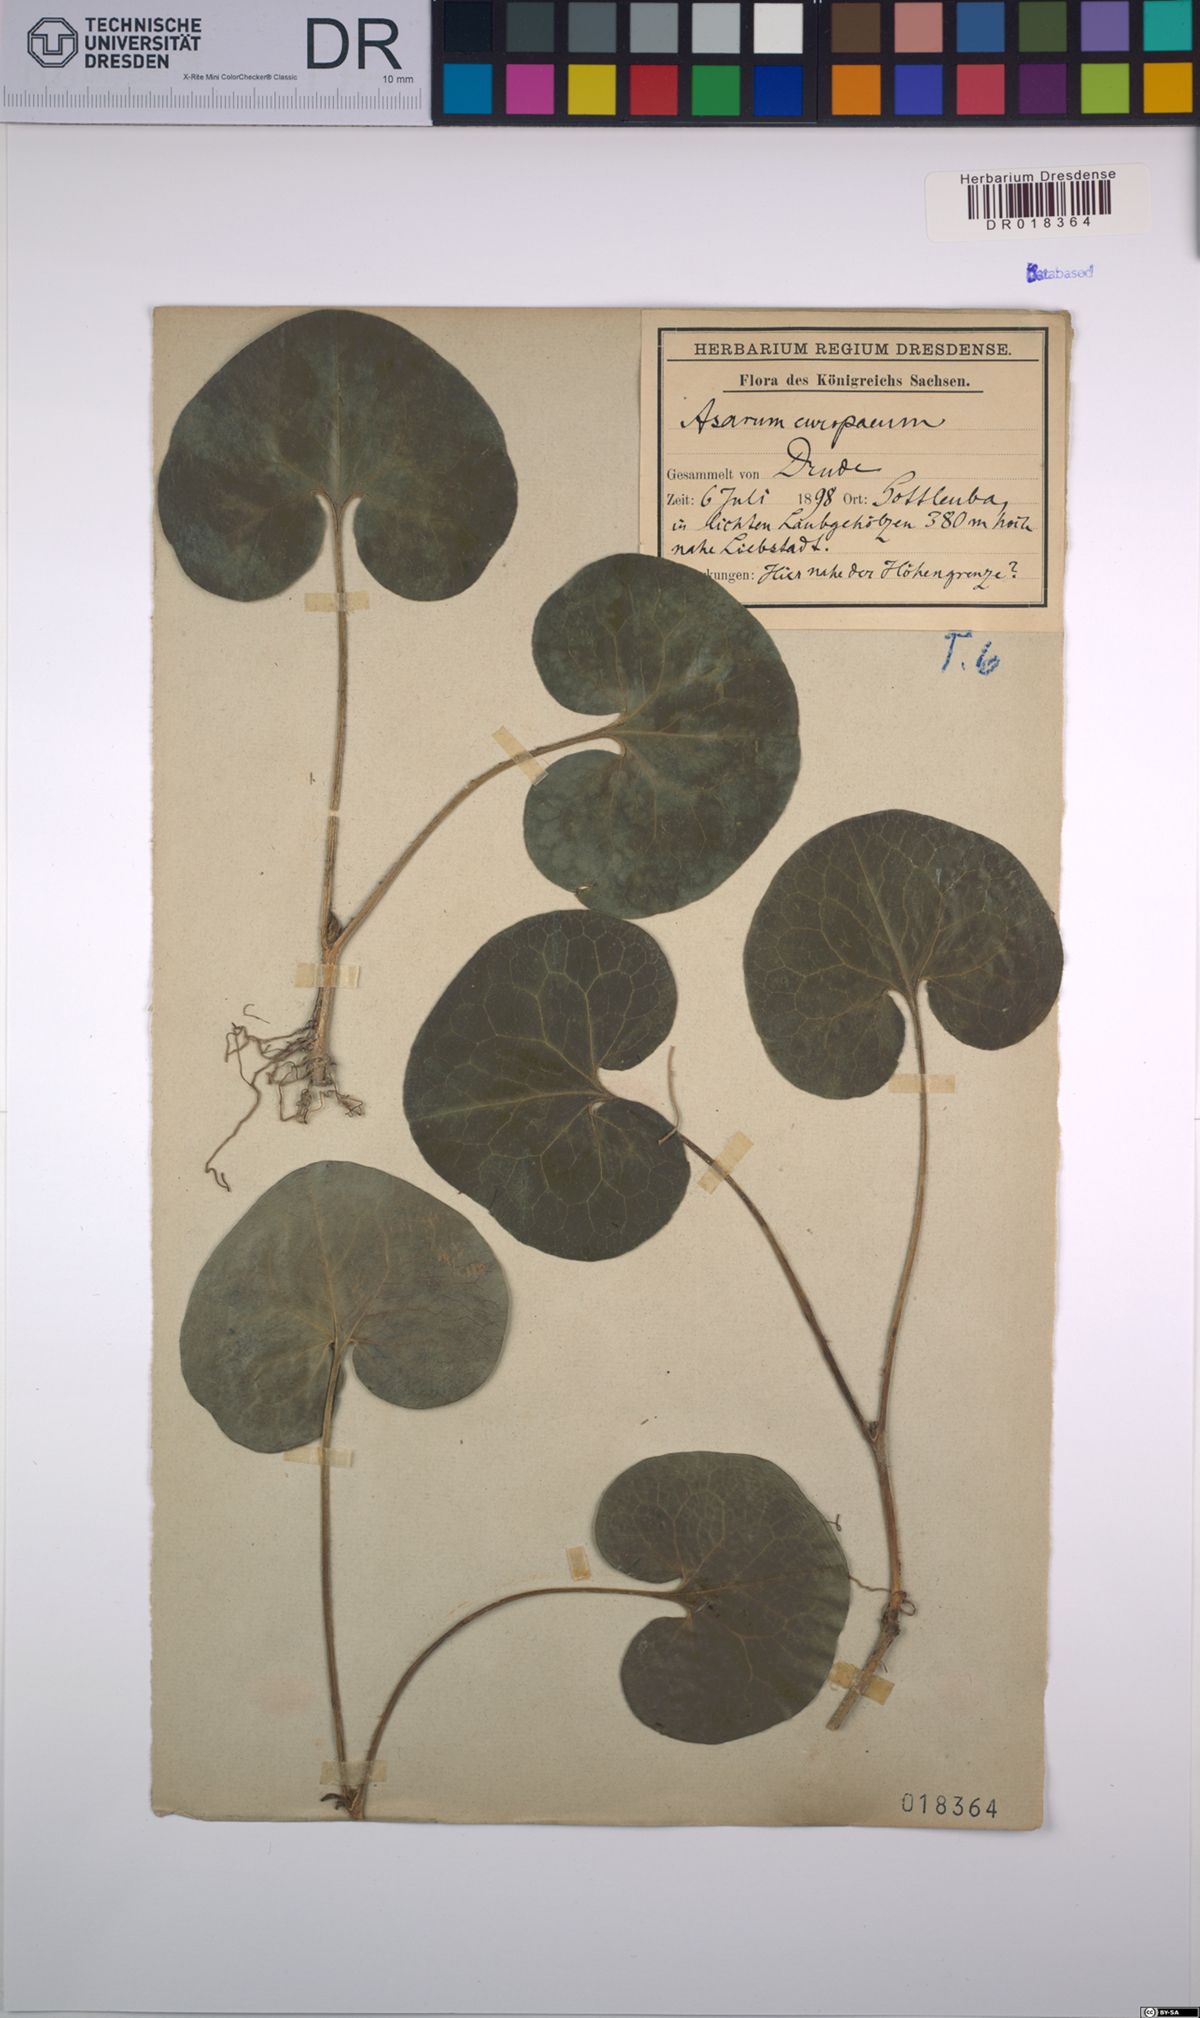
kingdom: Plantae
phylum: Tracheophyta
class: Magnoliopsida
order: Piperales
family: Aristolochiaceae
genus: Asarum
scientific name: Asarum europaeum
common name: Asarabacca
